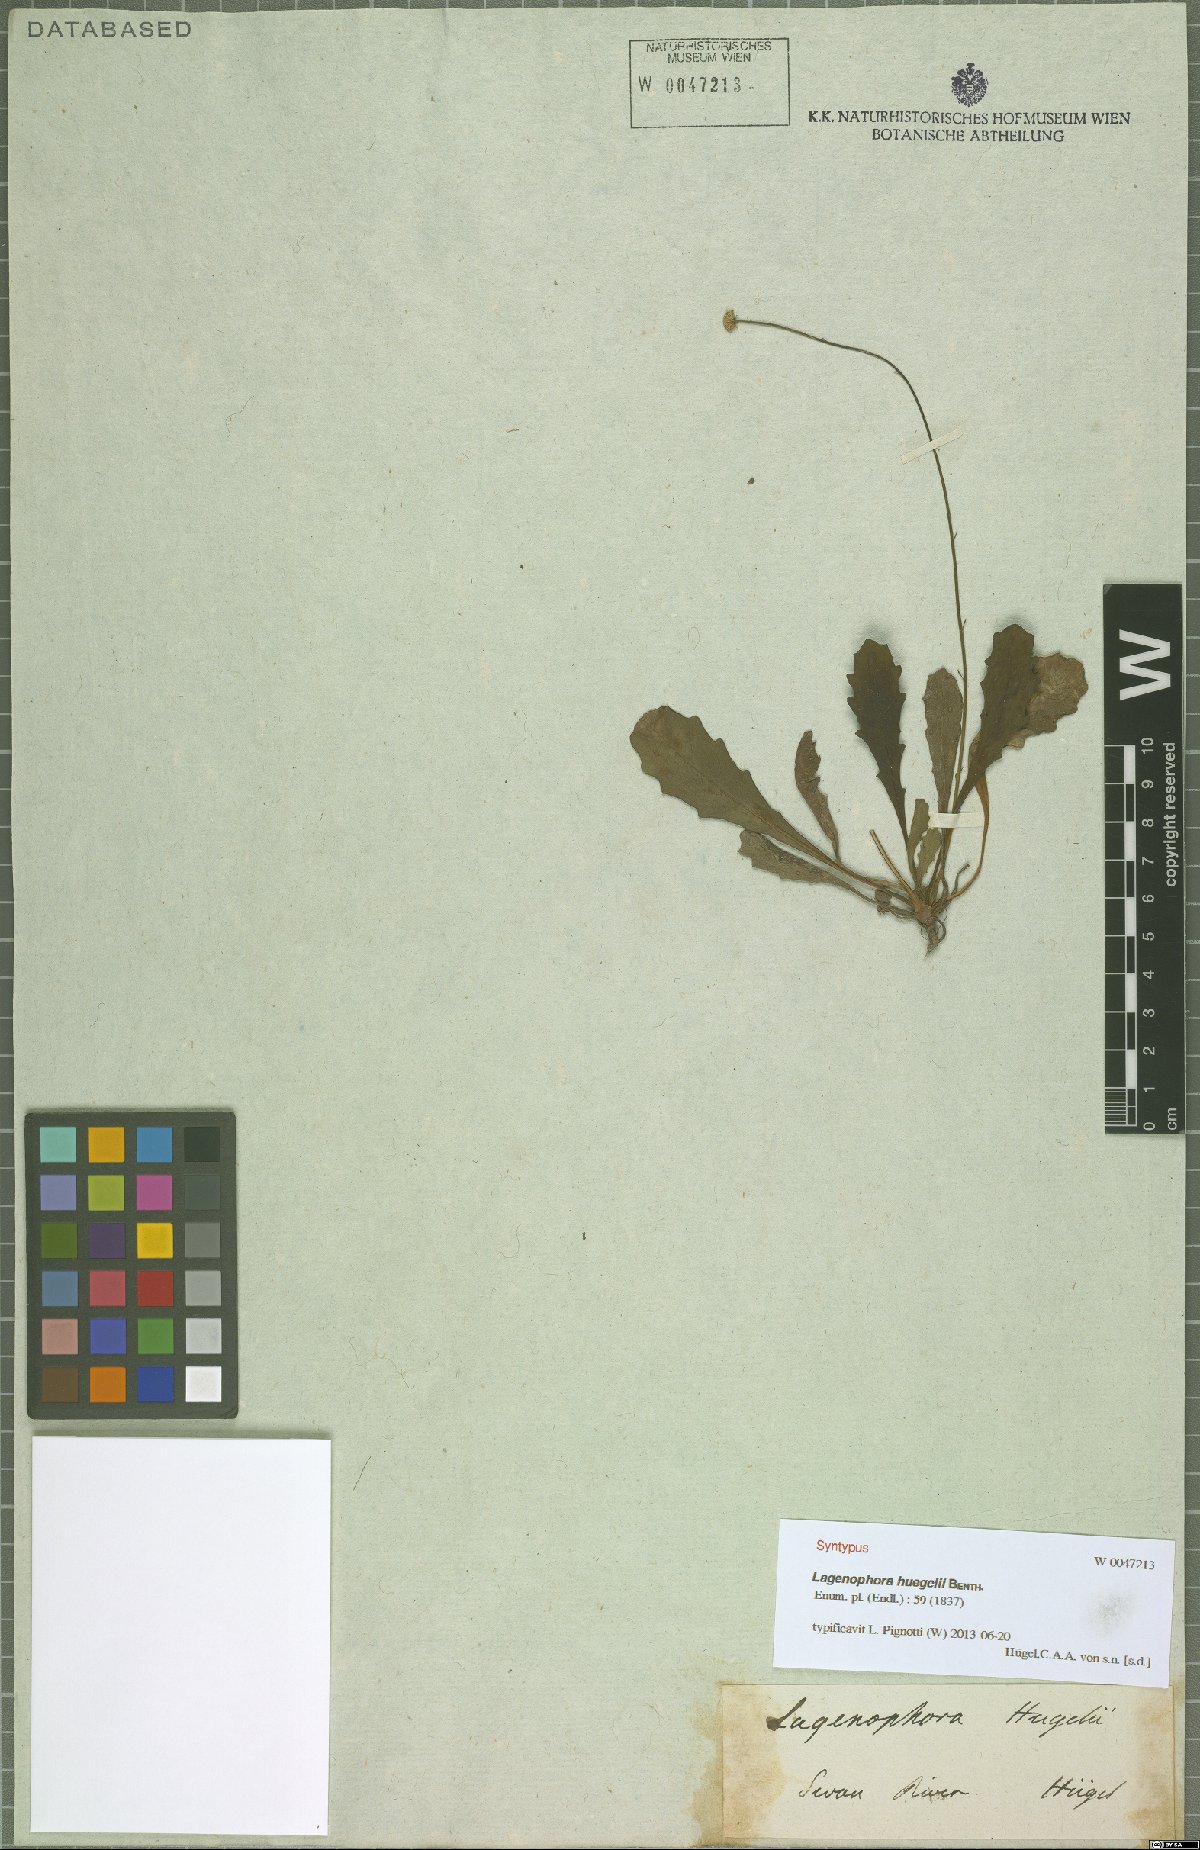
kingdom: Plantae
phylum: Tracheophyta
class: Magnoliopsida
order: Asterales
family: Asteraceae
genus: Lagenophora
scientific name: Lagenophora huegelii
